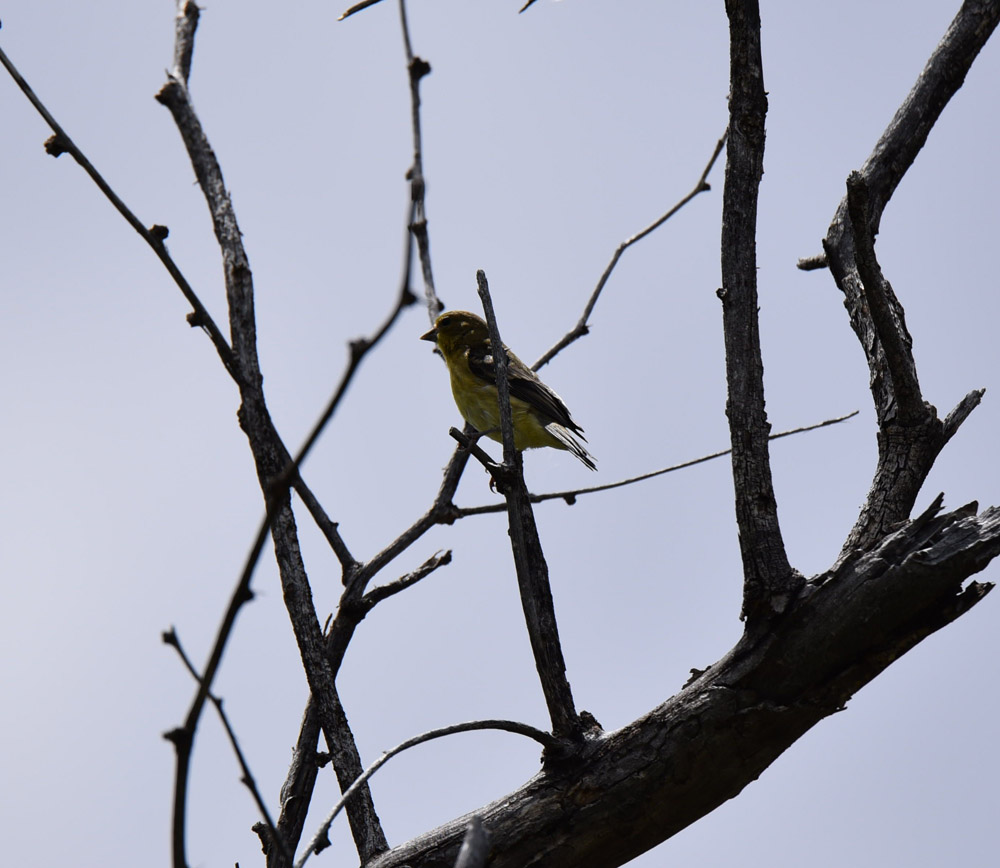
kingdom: Animalia
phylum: Chordata
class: Aves
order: Passeriformes
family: Fringillidae
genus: Spinus
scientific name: Spinus psaltria
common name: Lesser goldfinch
